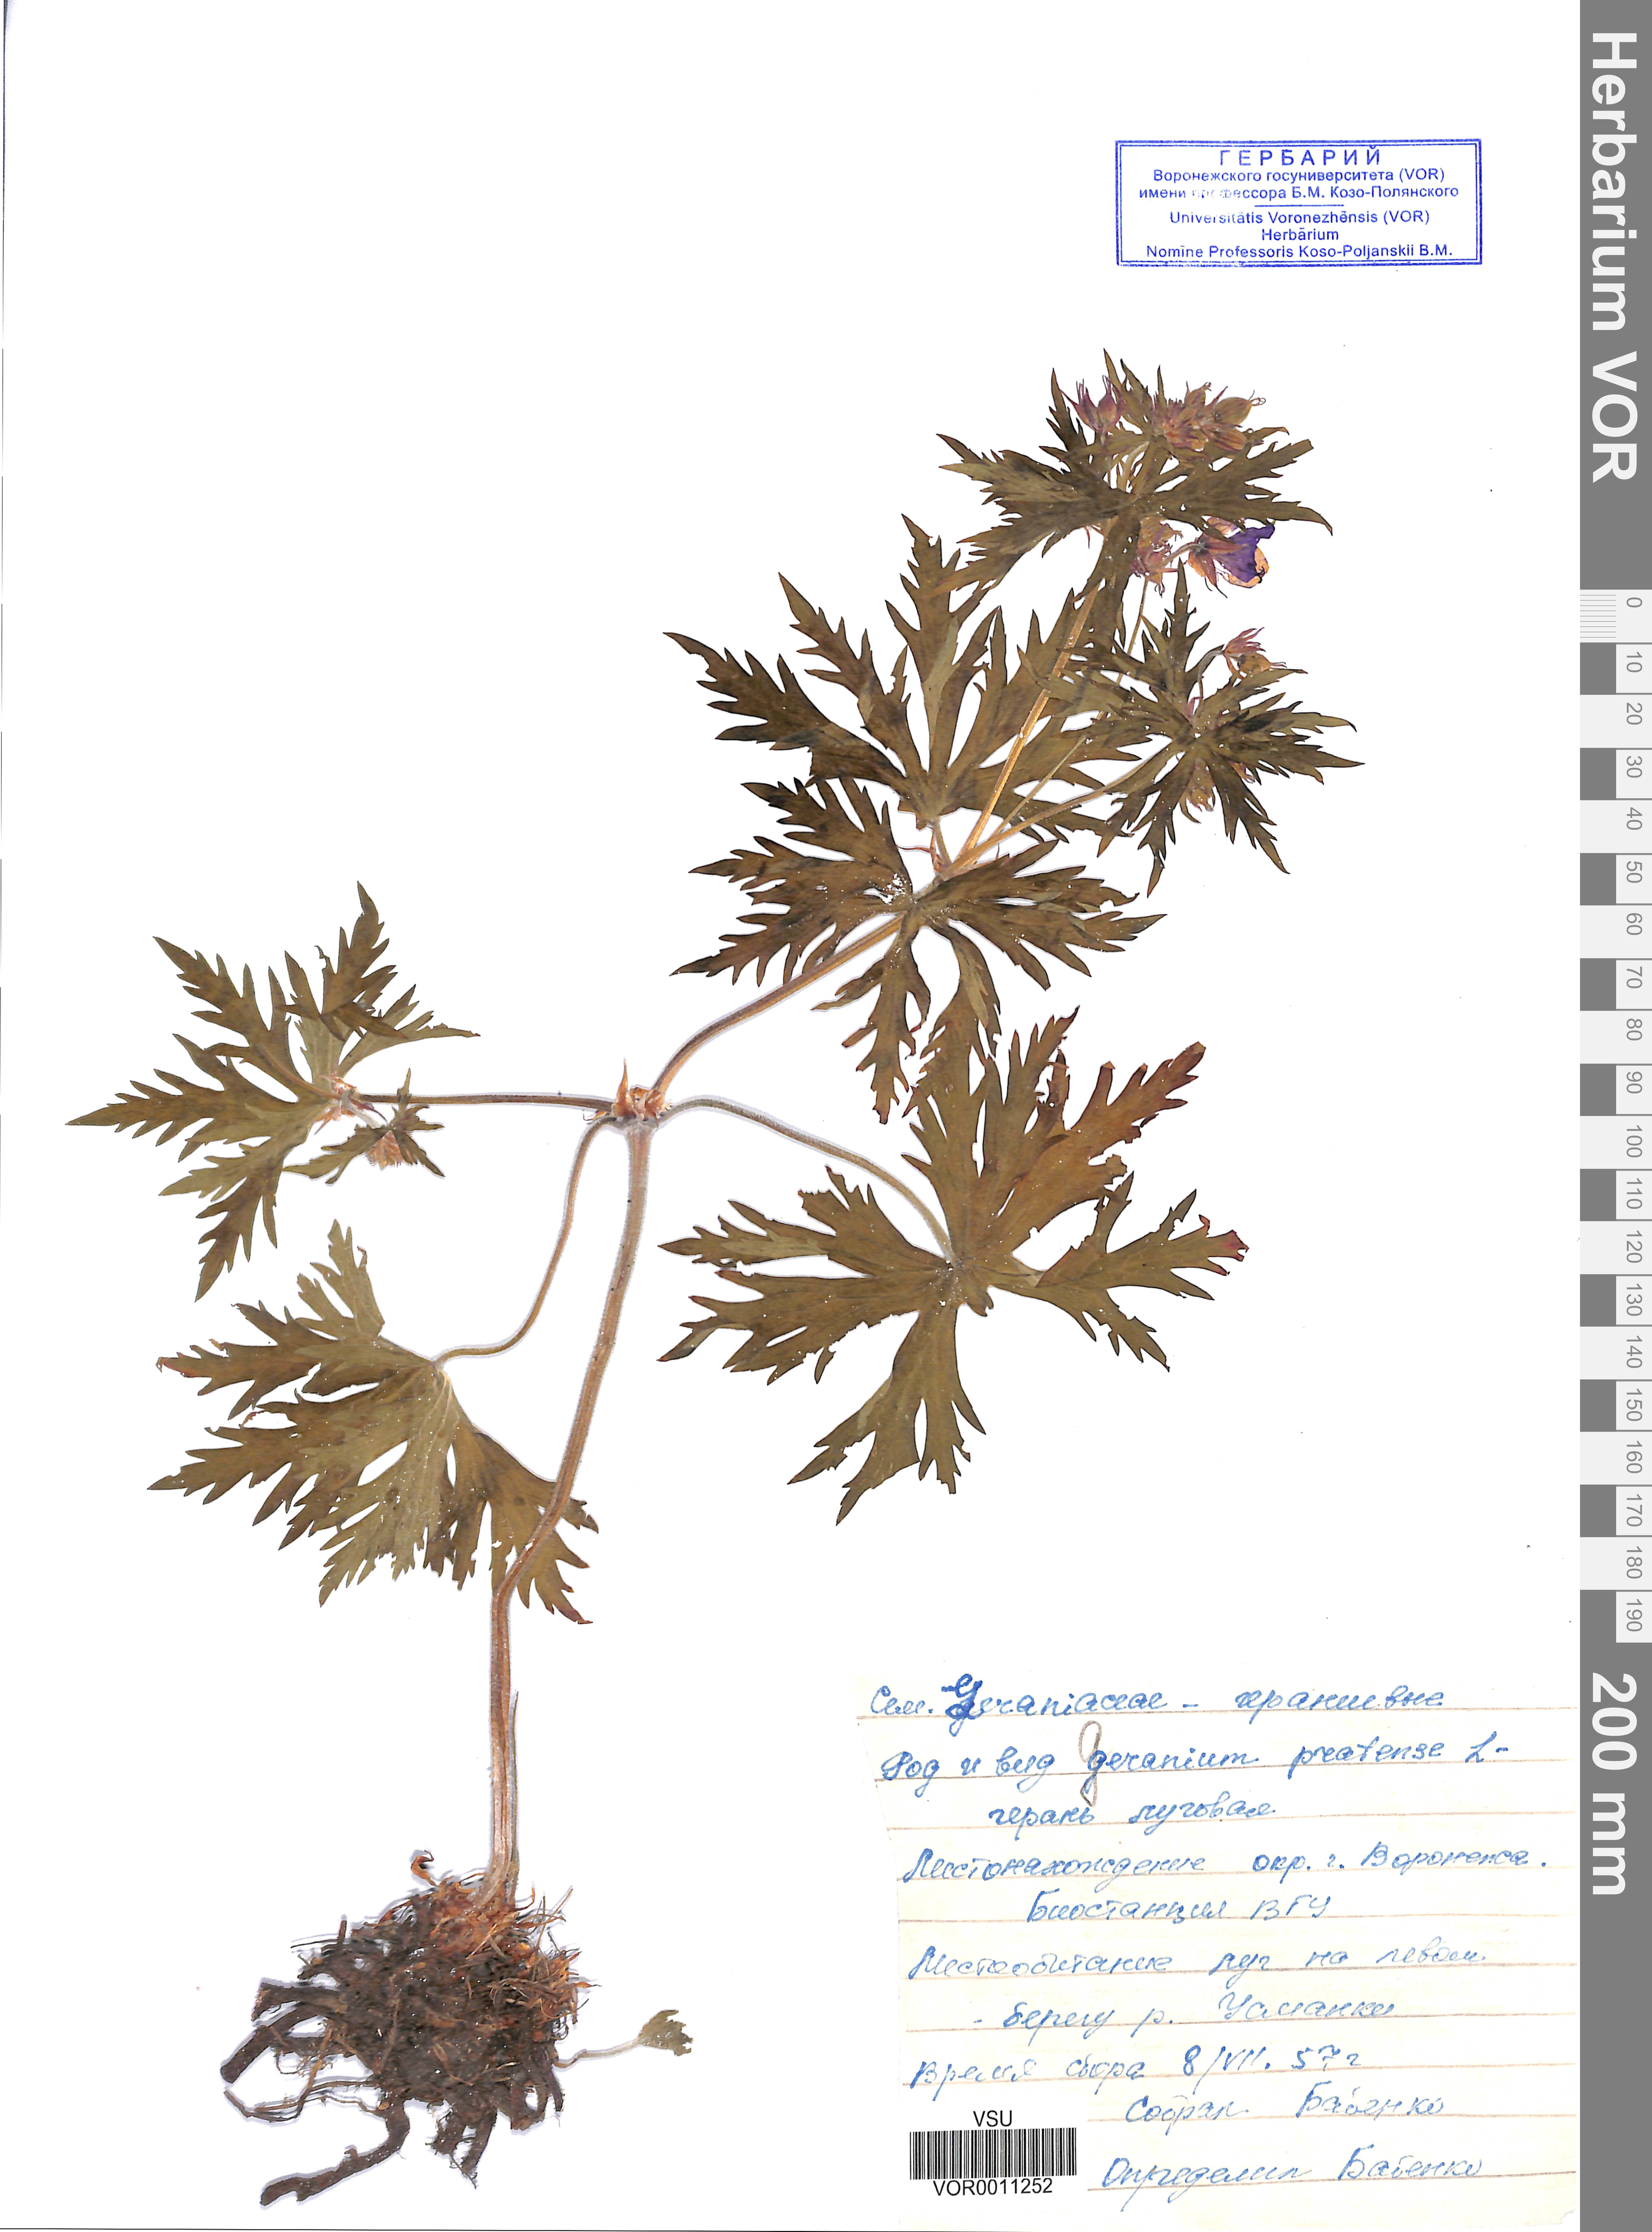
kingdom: Plantae
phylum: Tracheophyta
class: Magnoliopsida
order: Geraniales
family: Geraniaceae
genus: Geranium
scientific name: Geranium pratense
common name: Meadow crane's-bill
